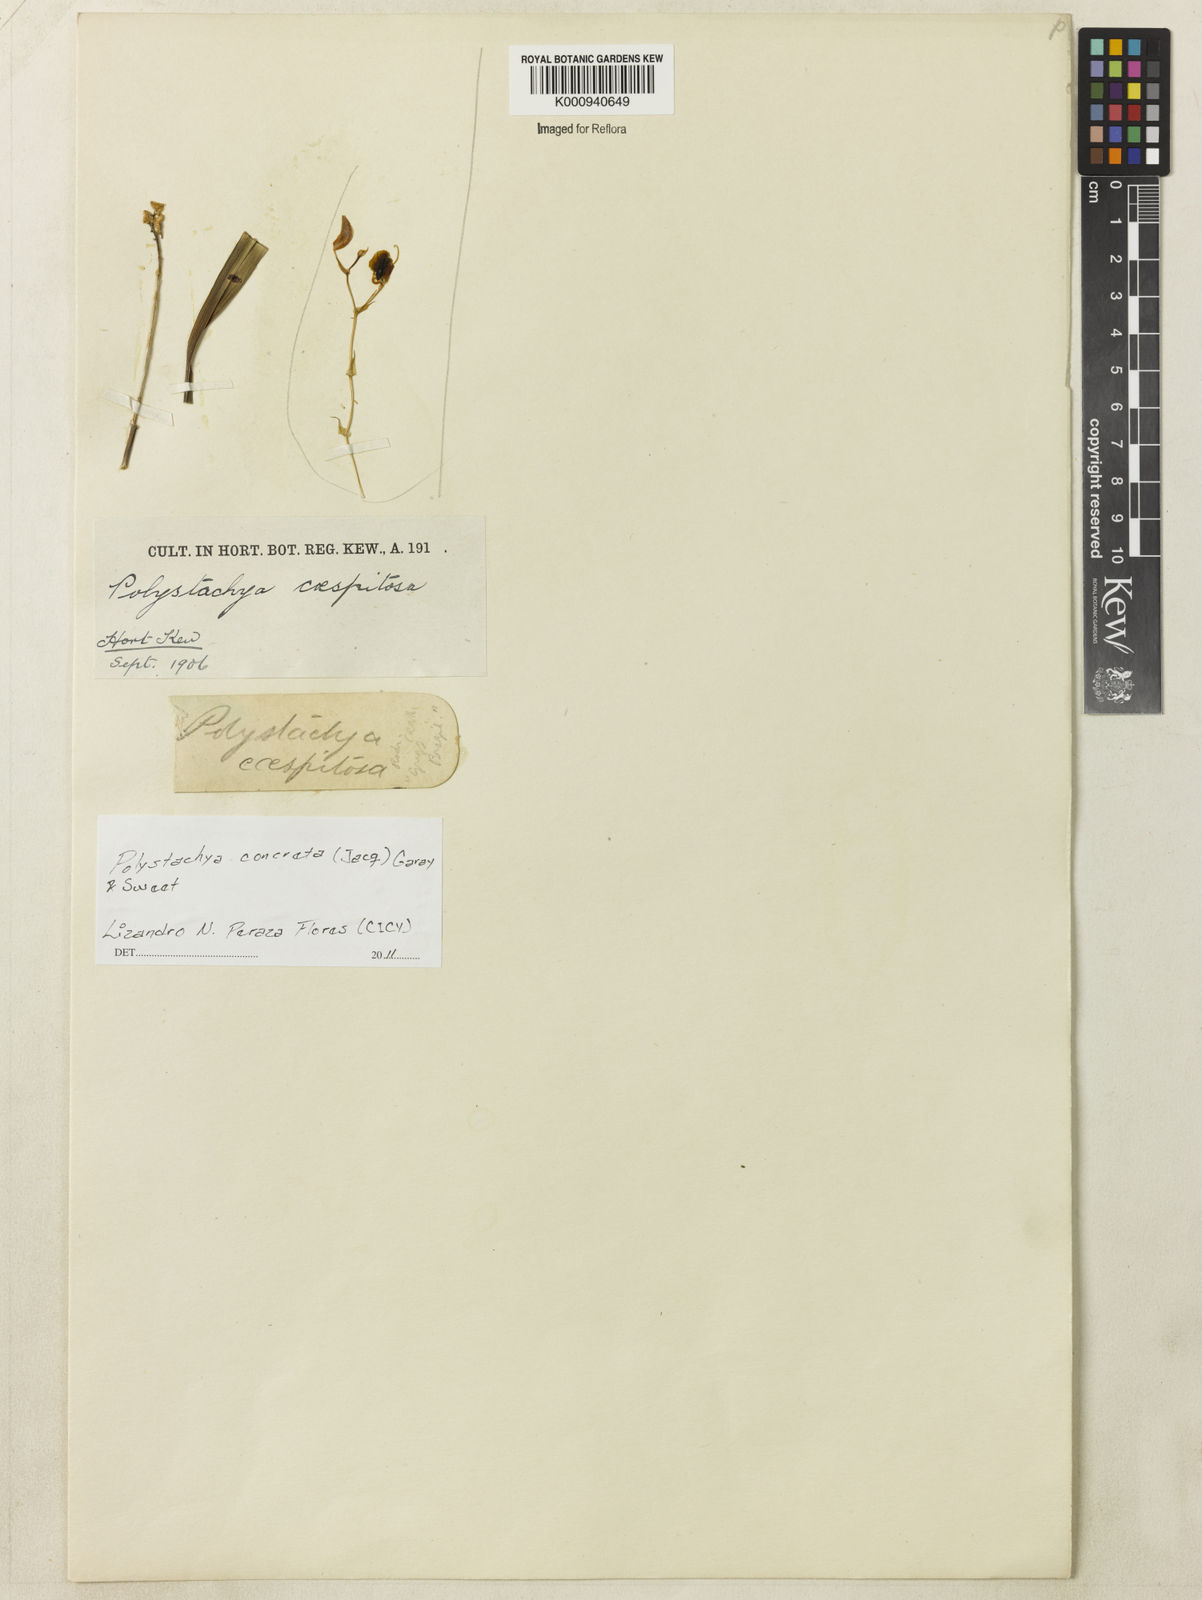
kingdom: Plantae
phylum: Tracheophyta
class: Liliopsida
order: Asparagales
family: Orchidaceae
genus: Polystachya
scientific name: Polystachya concreta
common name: Greater yellowspike orchid
